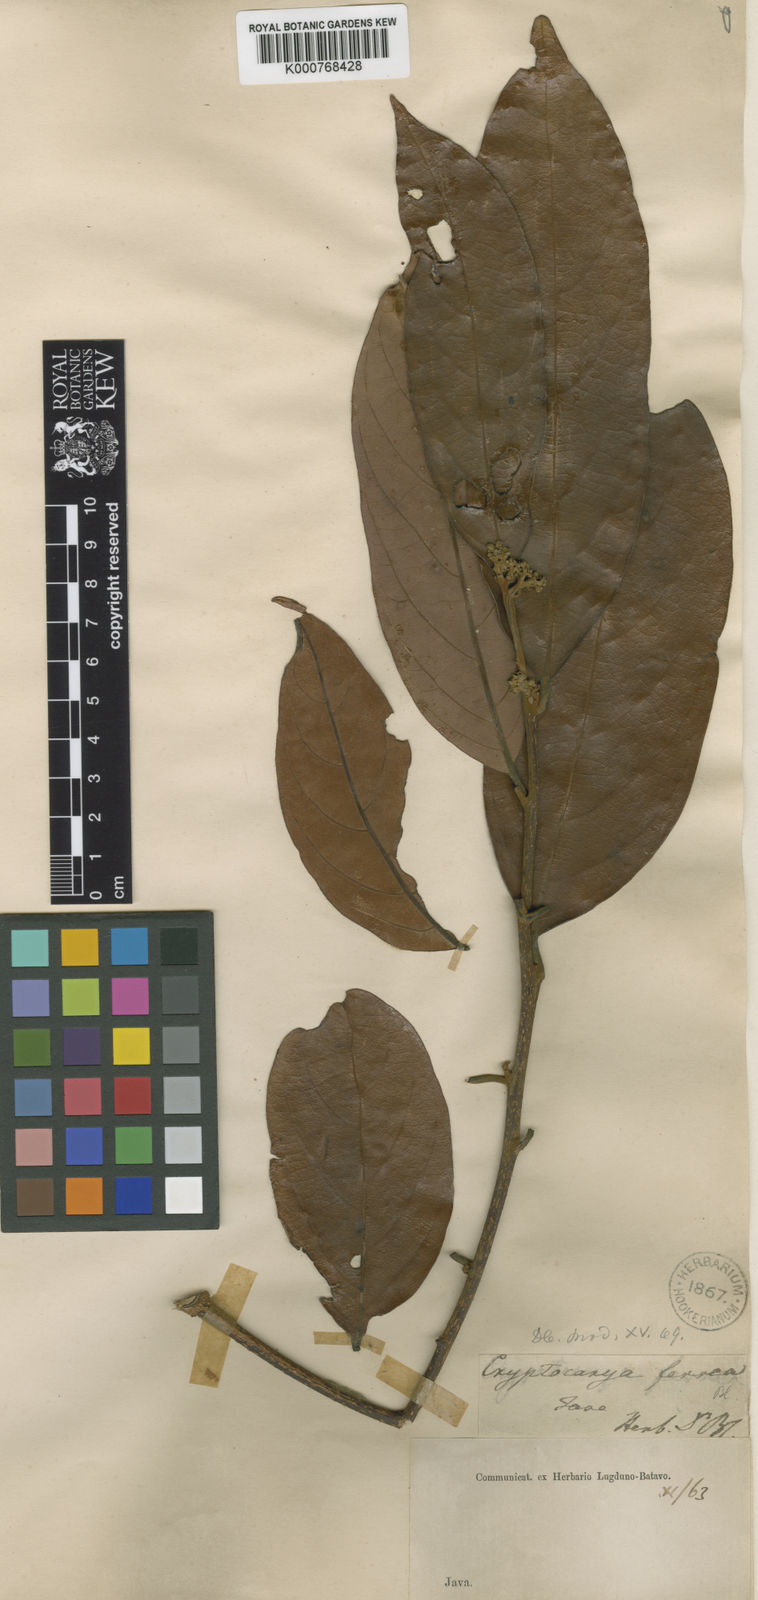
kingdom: Plantae
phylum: Tracheophyta
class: Magnoliopsida
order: Laurales
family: Lauraceae
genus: Cryptocarya
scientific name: Cryptocarya ferrea
